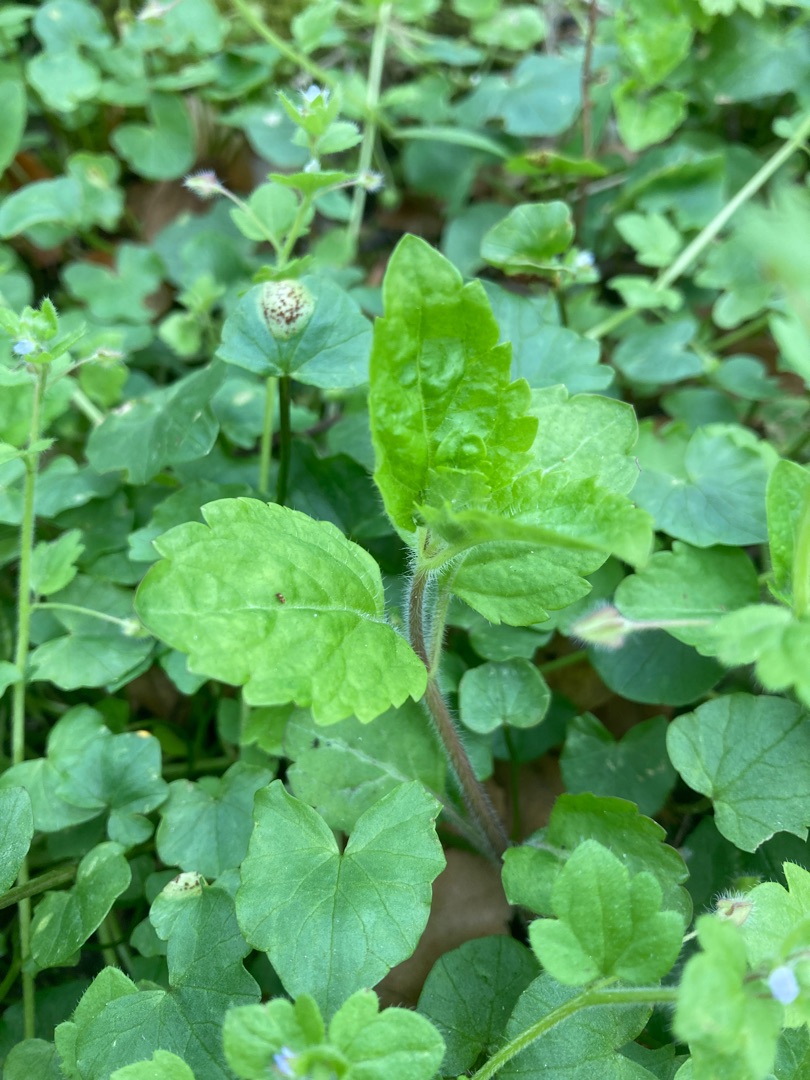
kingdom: Plantae
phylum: Tracheophyta
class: Magnoliopsida
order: Lamiales
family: Plantaginaceae
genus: Veronica
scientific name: Veronica montana
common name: Bjerg-ærenpris
